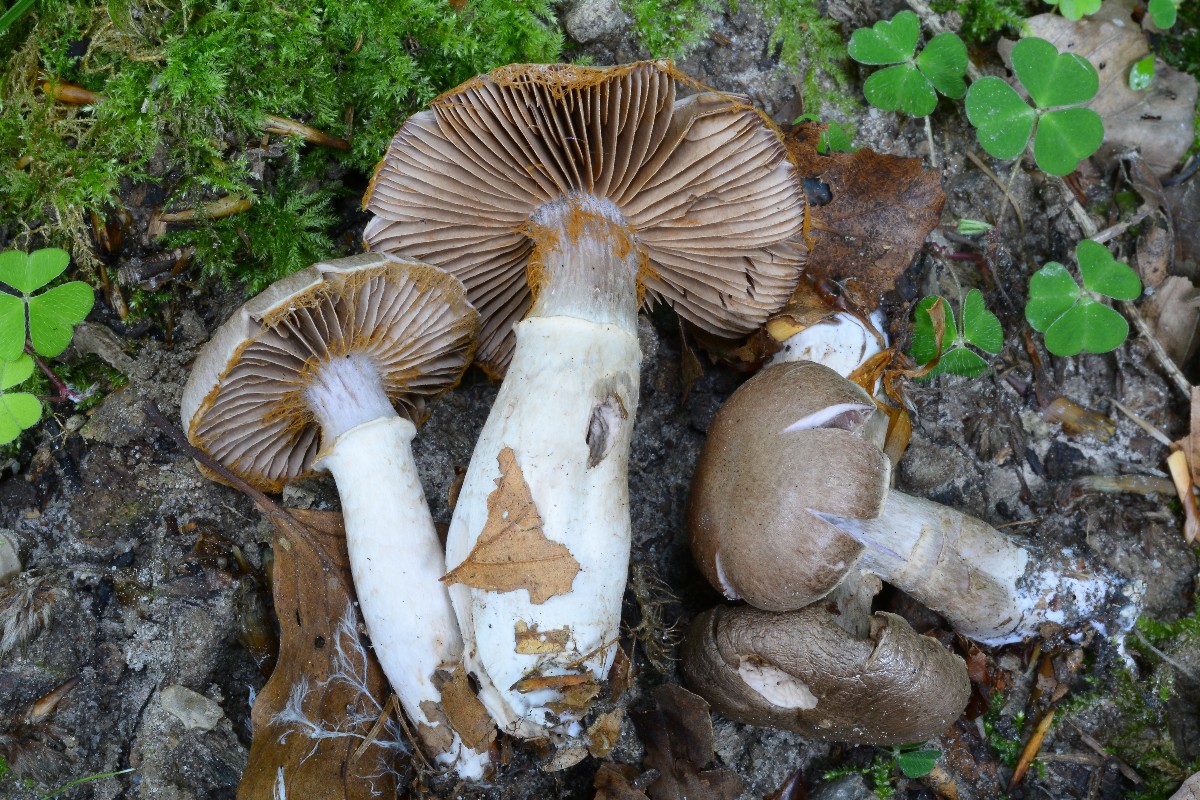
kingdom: Fungi
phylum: Basidiomycota
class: Agaricomycetes
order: Agaricales
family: Cortinariaceae
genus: Cortinarius
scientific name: Cortinarius torvus
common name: champignonagtig slørhat
